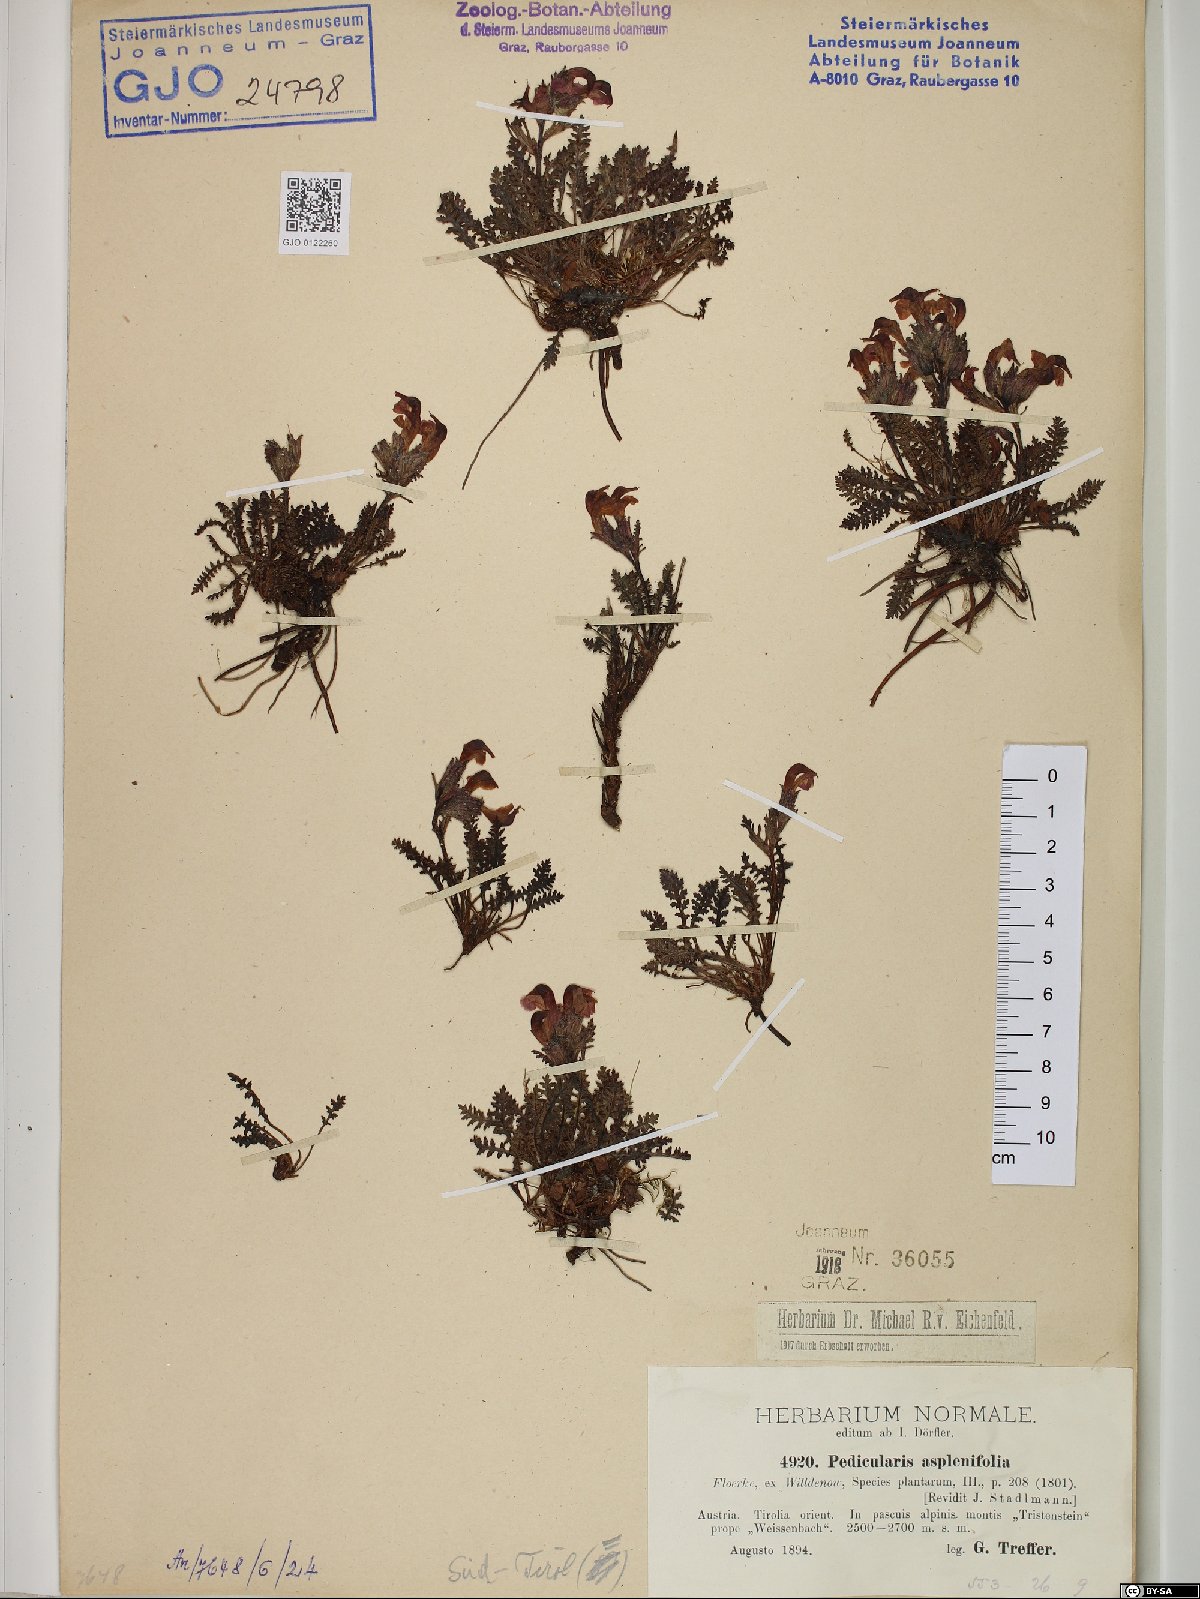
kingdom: Plantae
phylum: Tracheophyta
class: Magnoliopsida
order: Lamiales
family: Orobanchaceae
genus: Pedicularis
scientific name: Pedicularis asplenifolia
